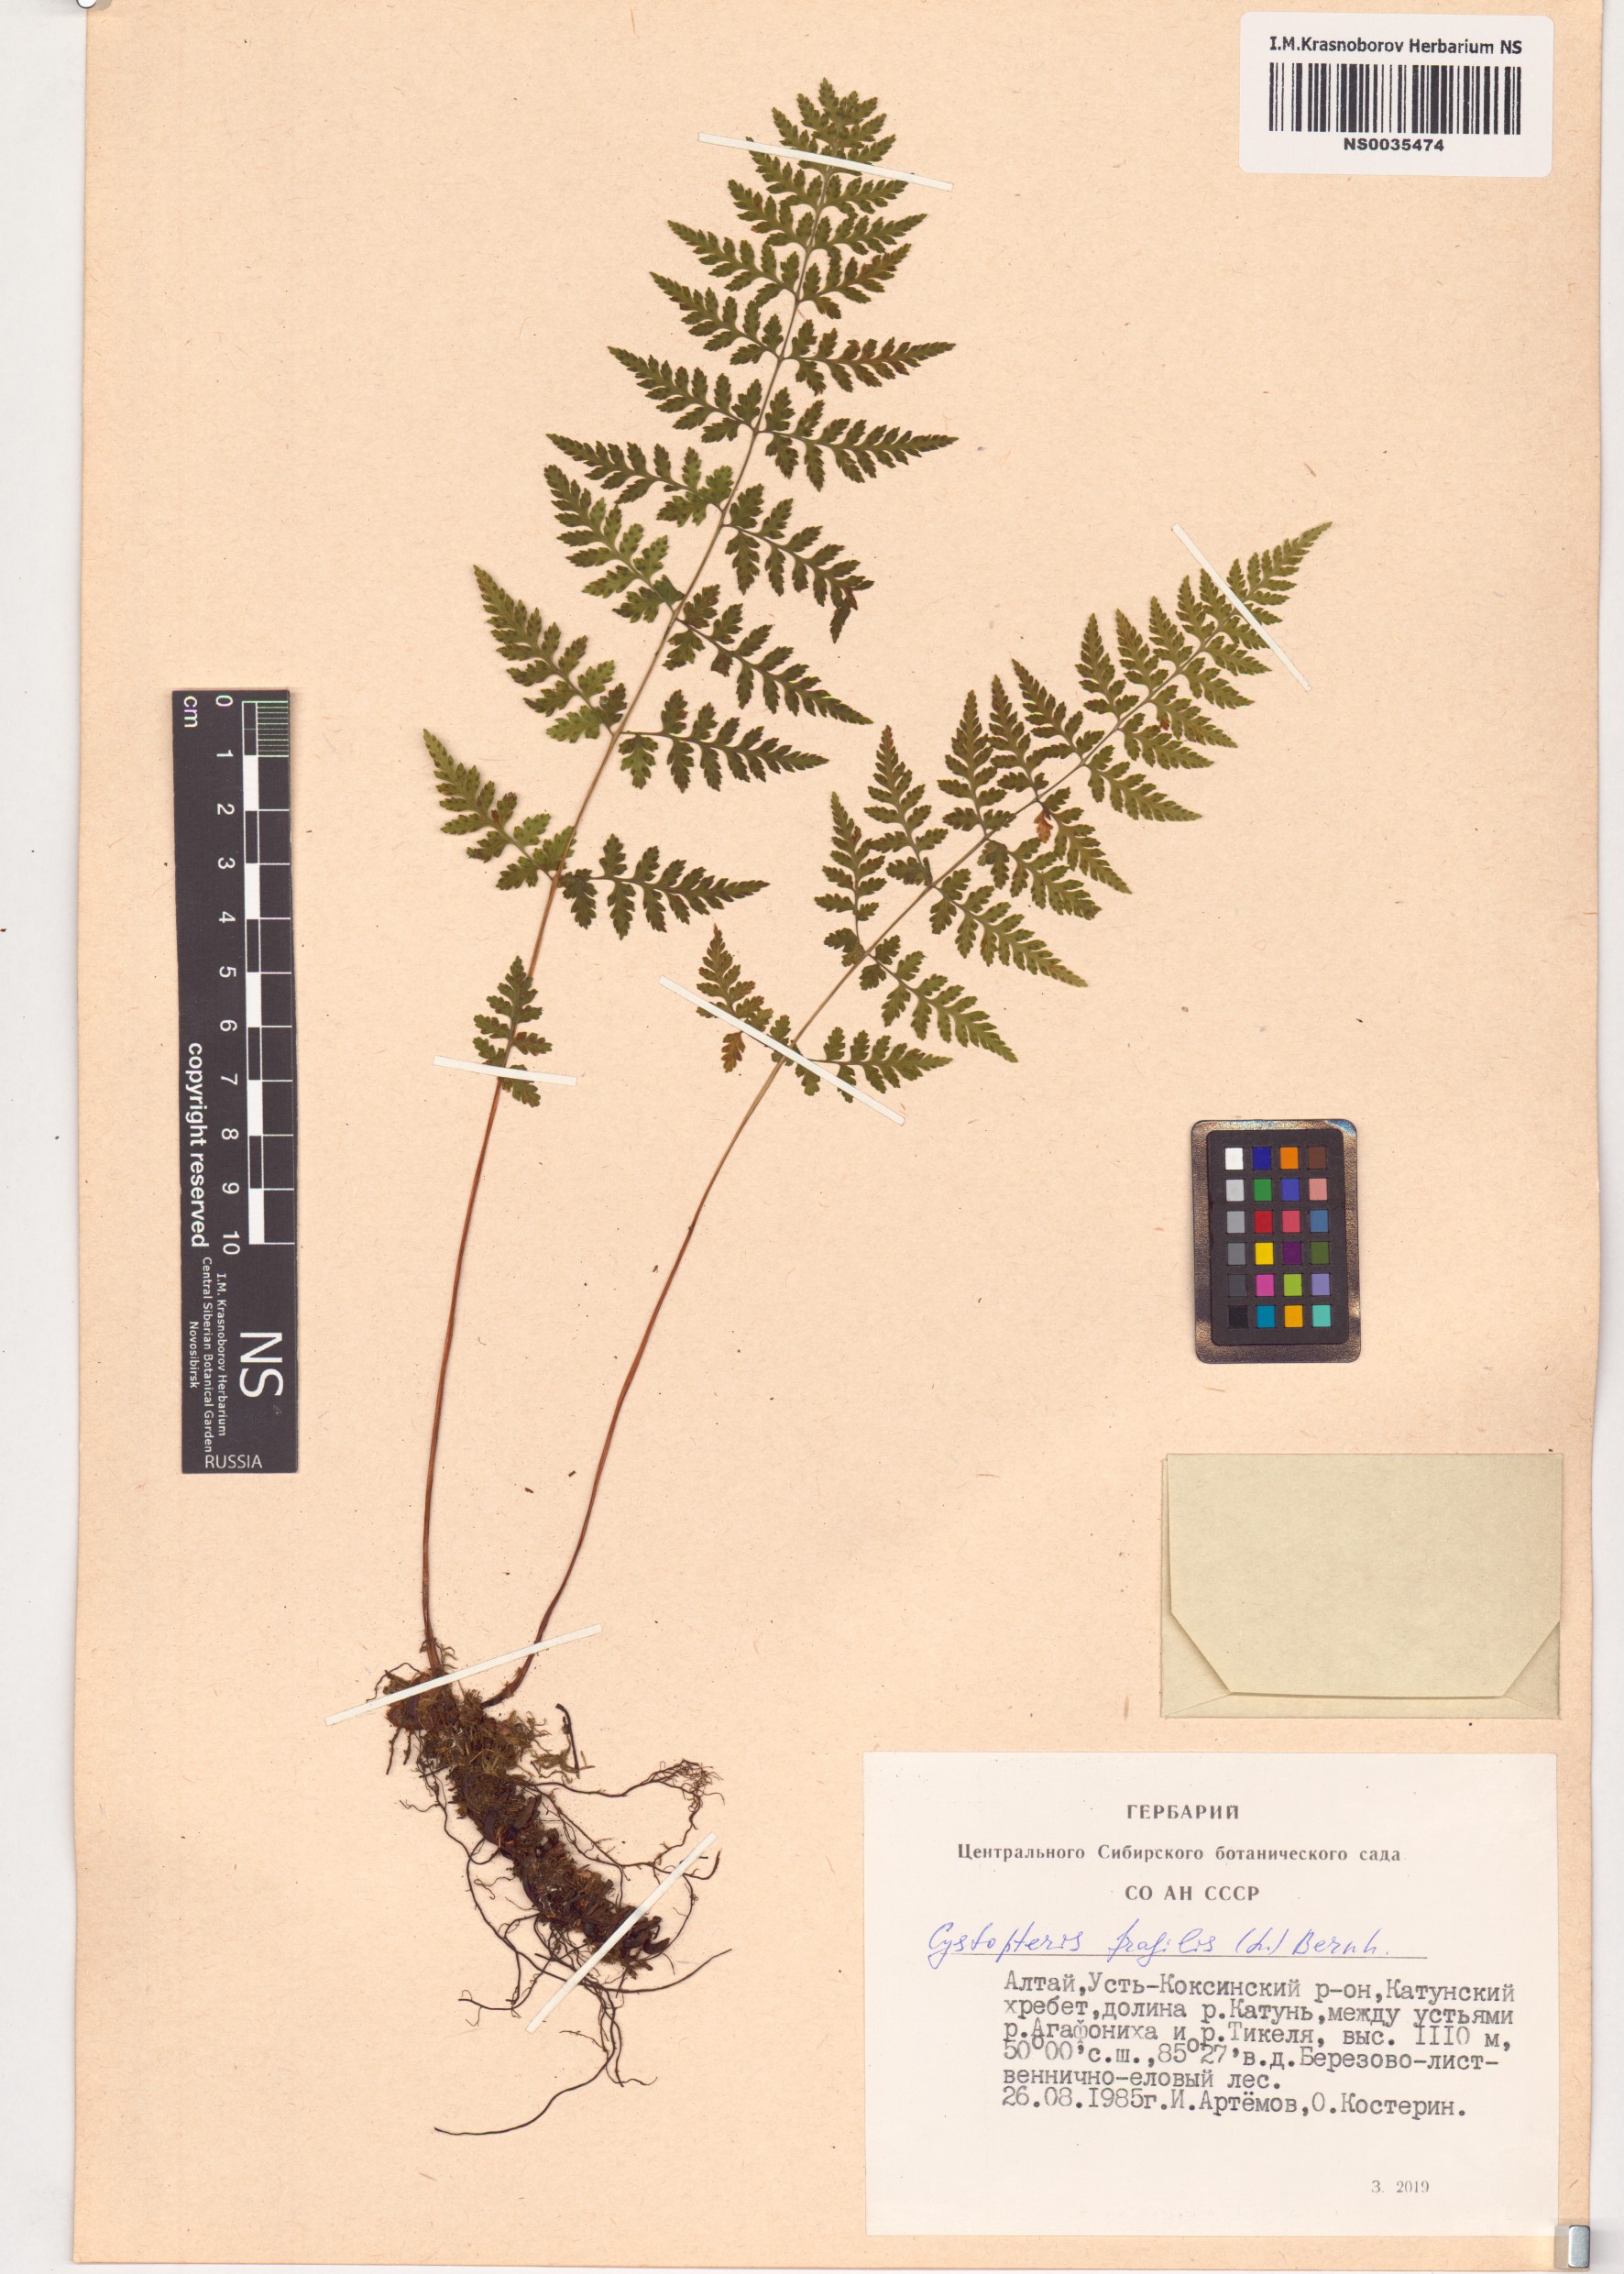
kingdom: Plantae
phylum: Tracheophyta
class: Polypodiopsida
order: Polypodiales
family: Cystopteridaceae
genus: Cystopteris
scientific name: Cystopteris fragilis
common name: Brittle bladder fern
